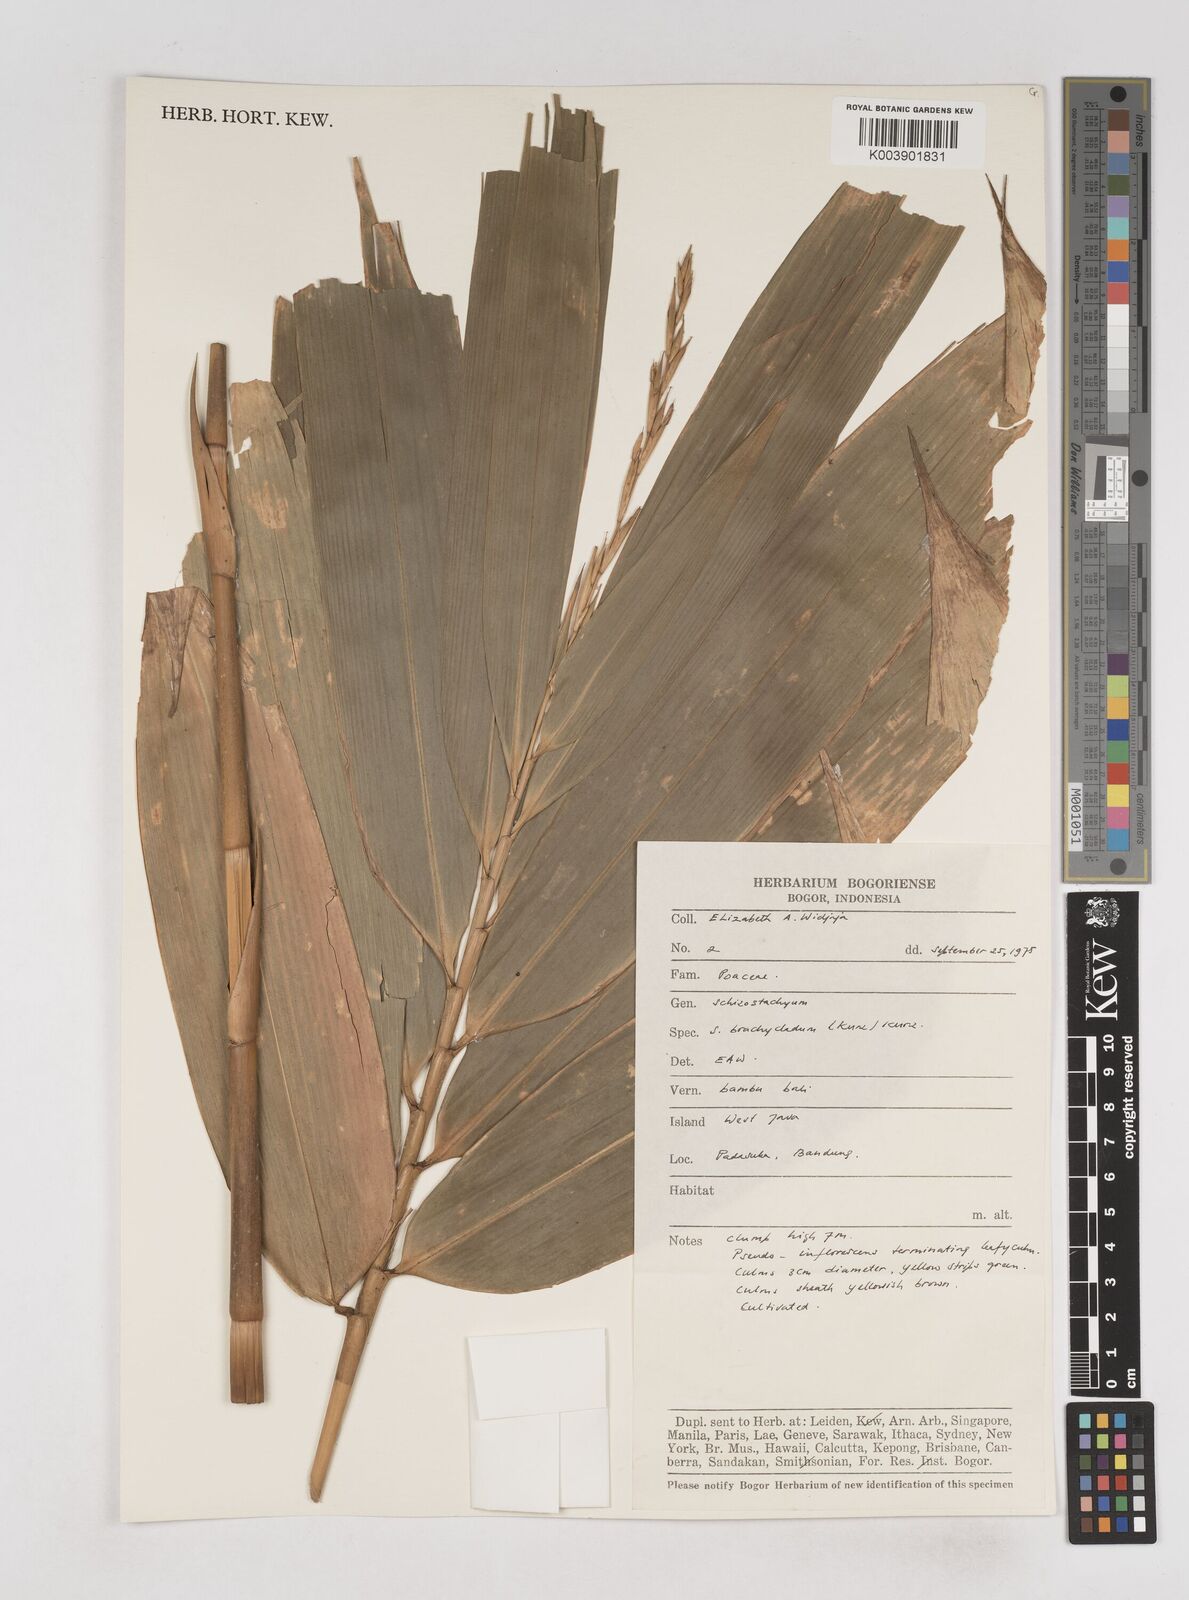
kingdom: Plantae
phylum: Tracheophyta
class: Liliopsida
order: Poales
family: Poaceae
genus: Schizostachyum
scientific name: Schizostachyum brachycladum
